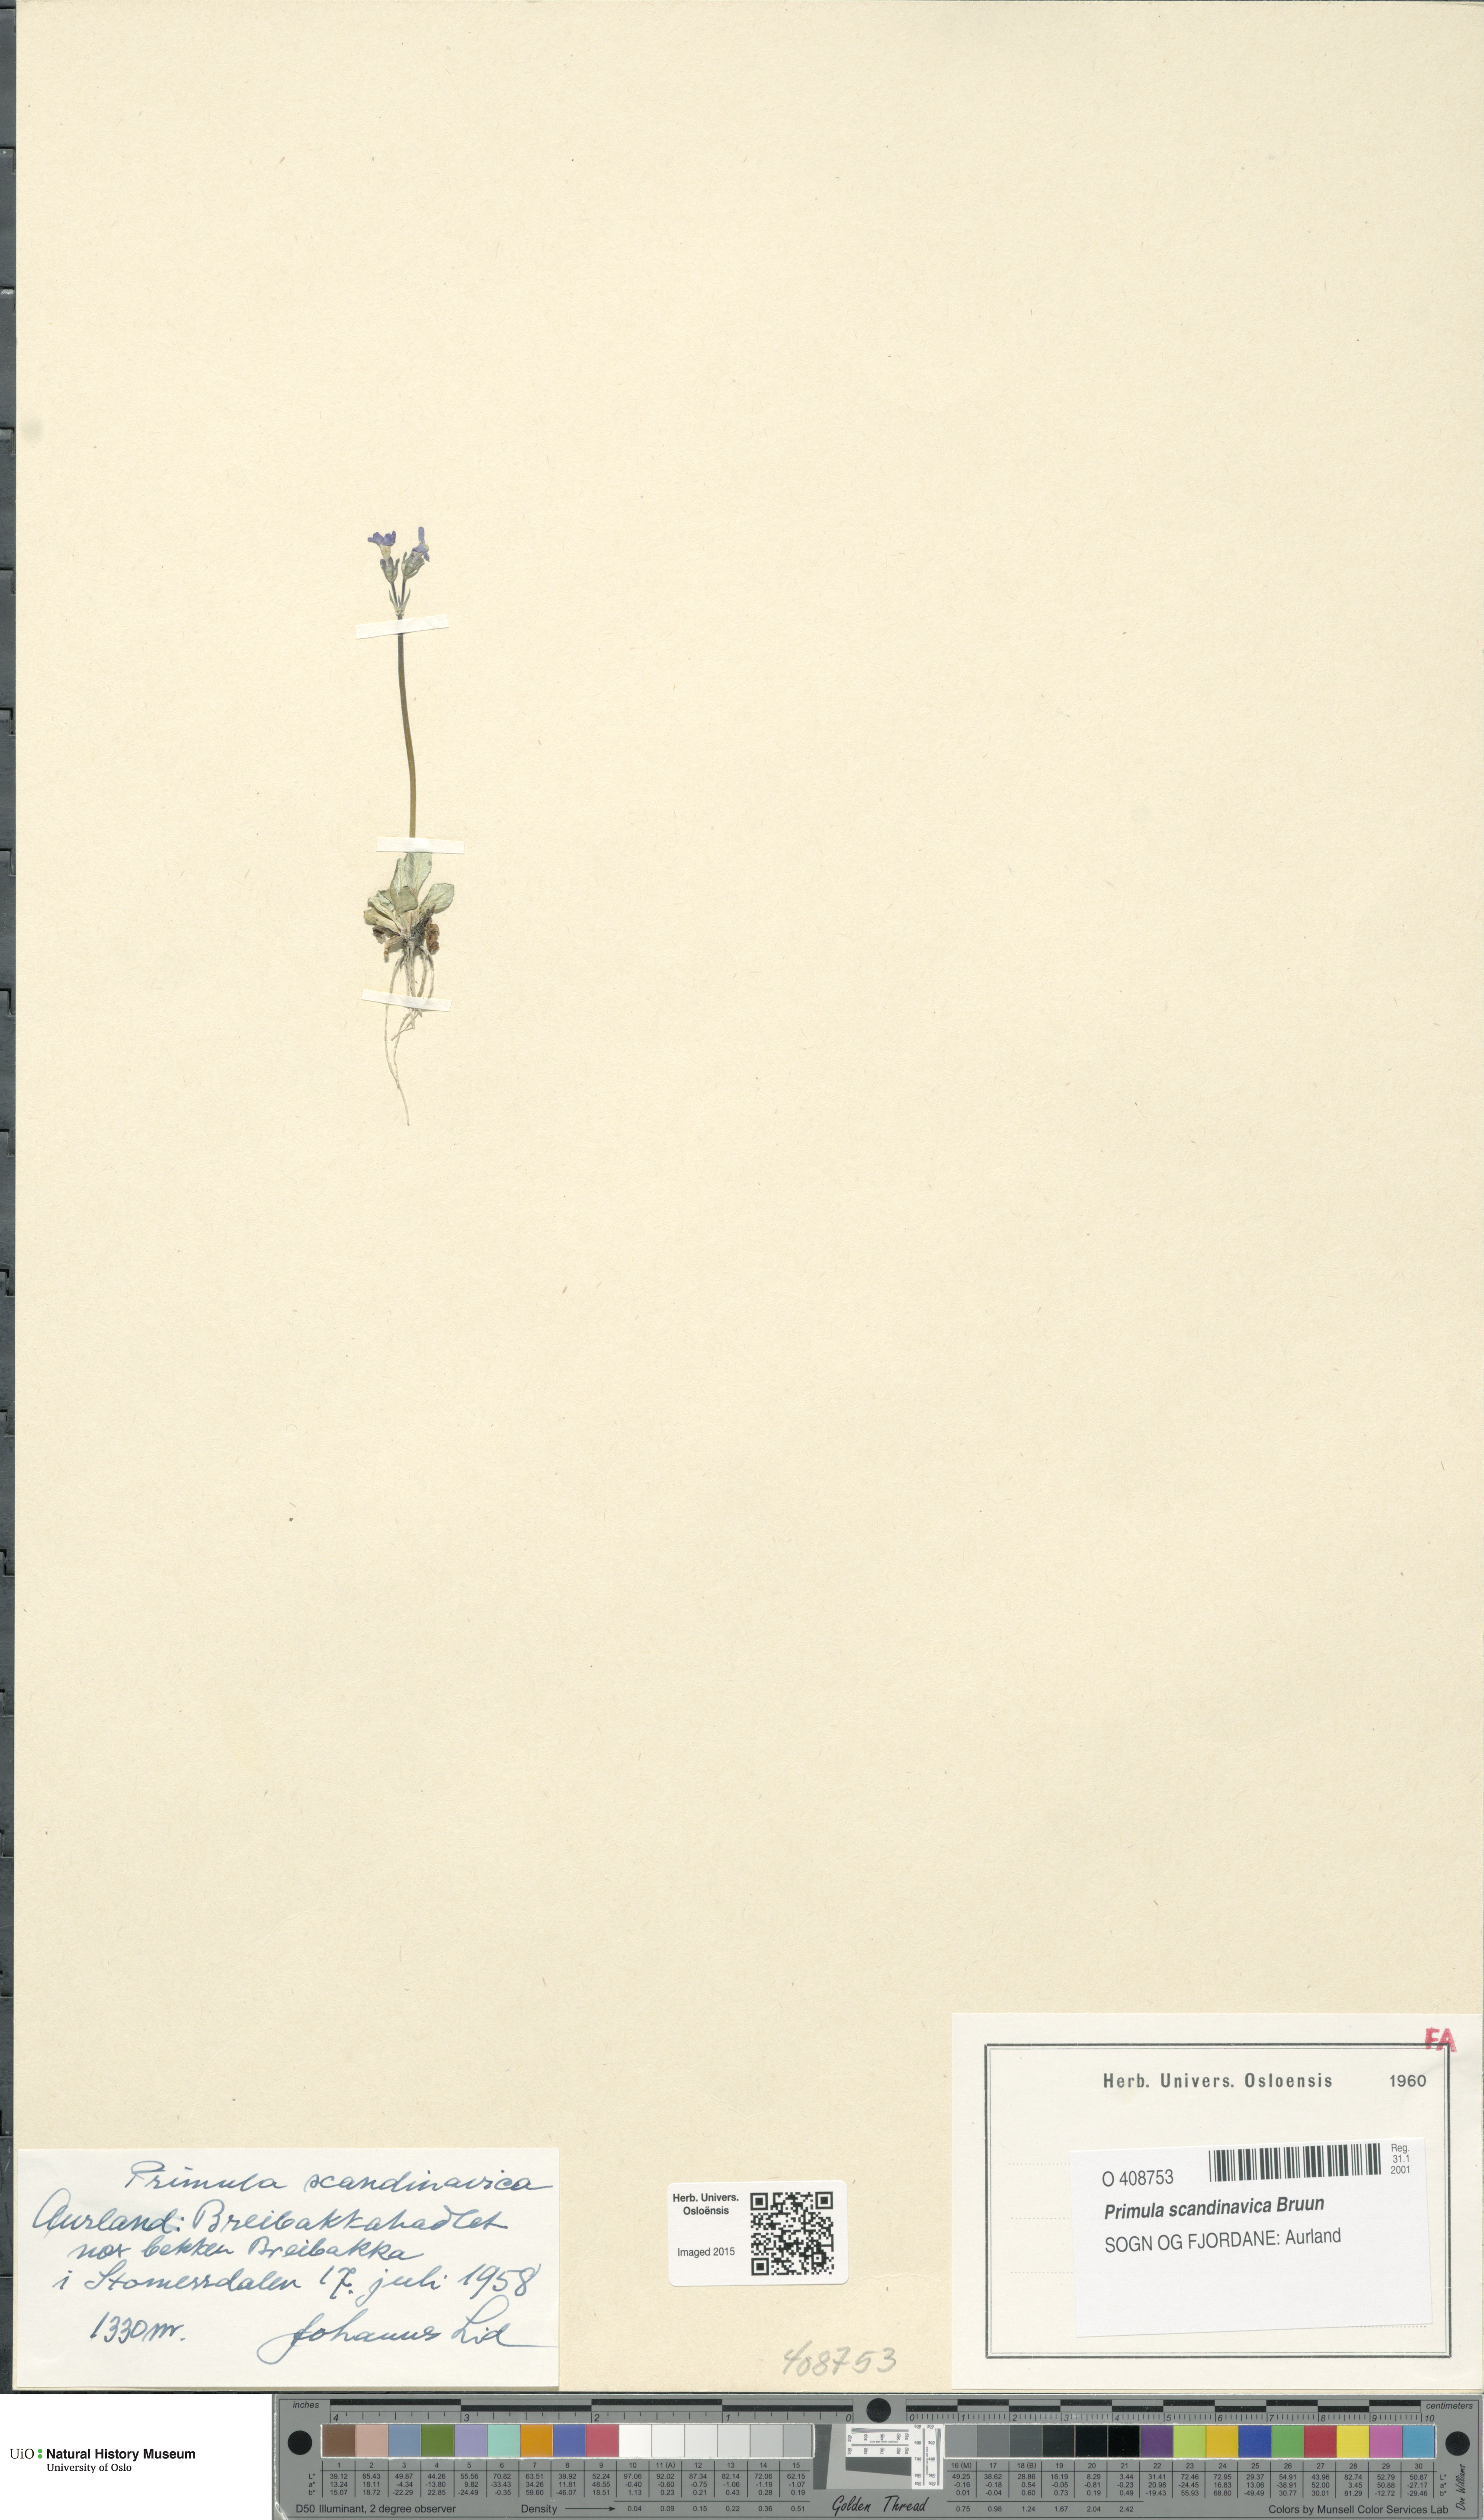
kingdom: Plantae
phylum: Tracheophyta
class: Magnoliopsida
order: Ericales
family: Primulaceae
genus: Primula
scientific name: Primula scandinavica
